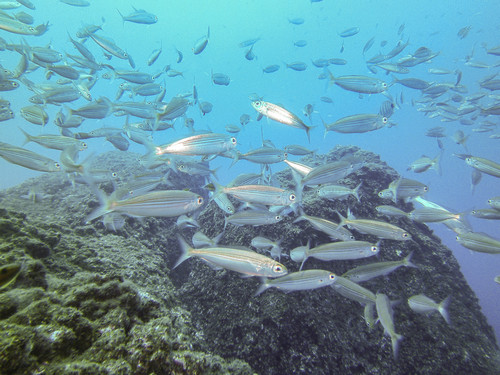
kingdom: Animalia
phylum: Chordata
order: Perciformes
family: Sparidae
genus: Boops
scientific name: Boops boops
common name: Bogue
